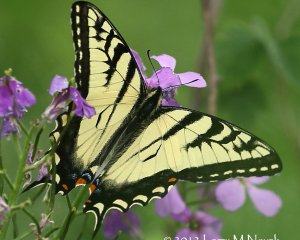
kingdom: Animalia
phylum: Arthropoda
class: Insecta
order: Lepidoptera
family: Papilionidae
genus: Pterourus
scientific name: Pterourus canadensis
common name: Canadian Tiger Swallowtail
